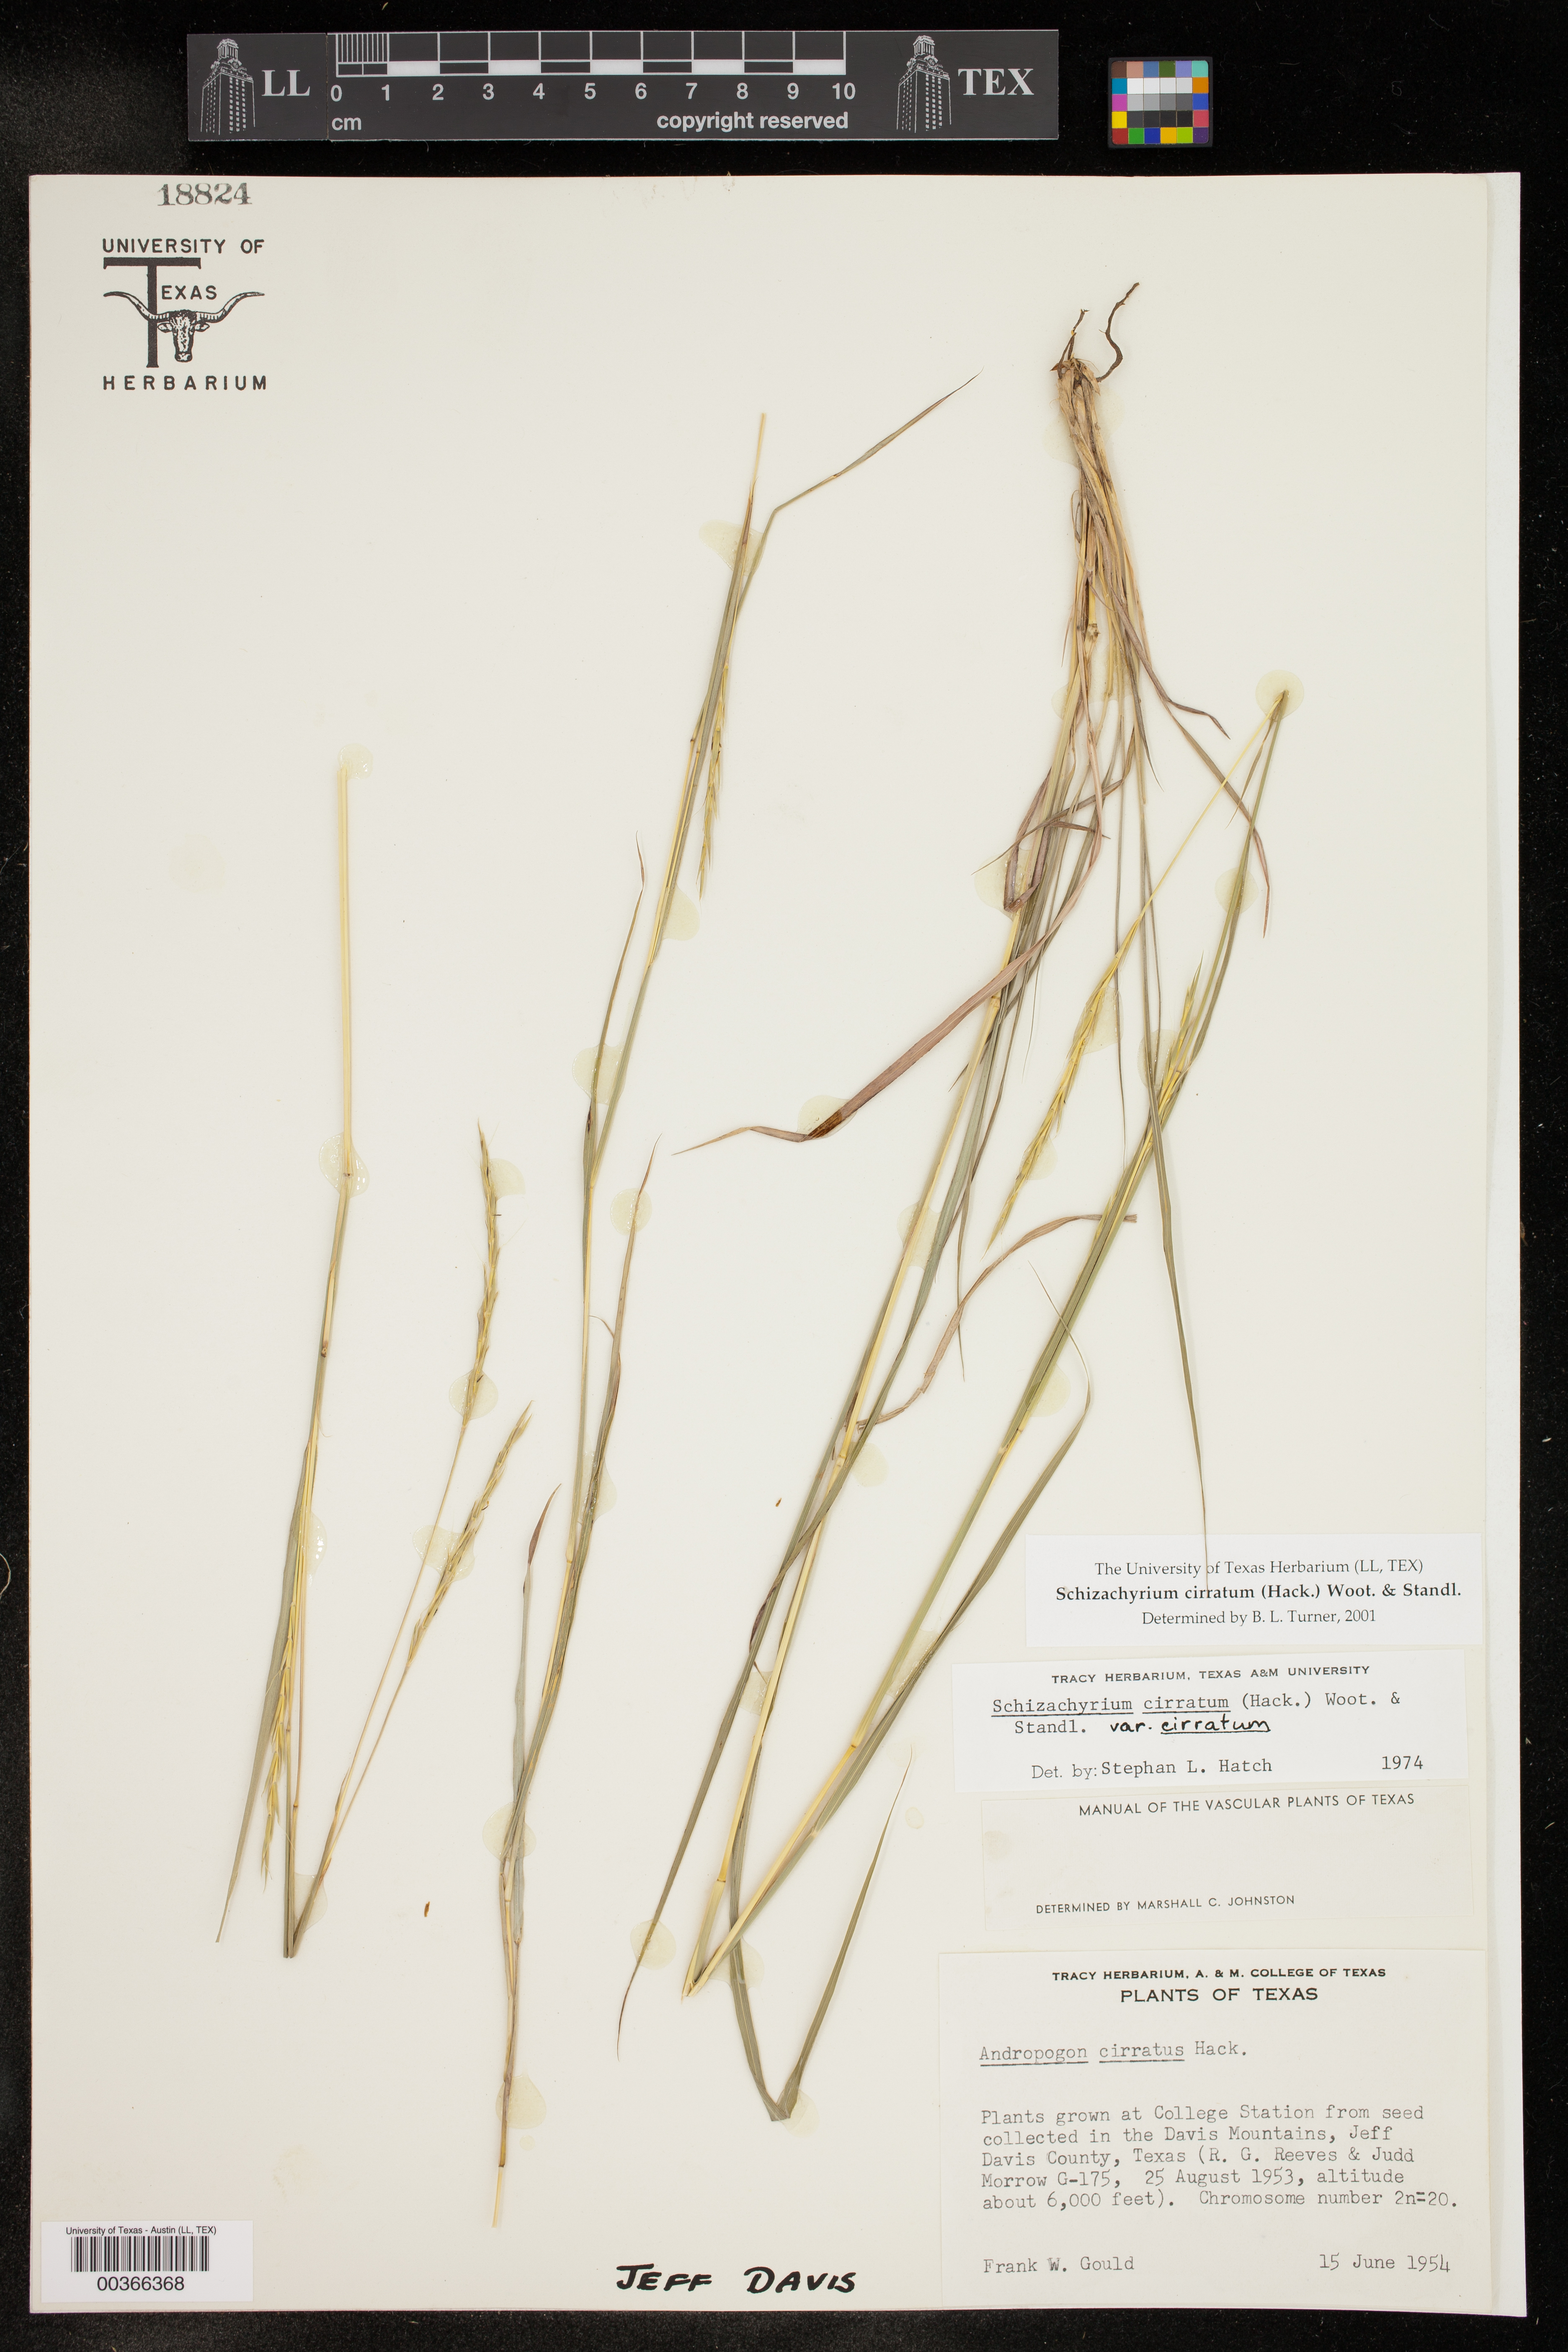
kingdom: Plantae
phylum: Tracheophyta
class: Liliopsida
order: Poales
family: Poaceae
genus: Andropogon
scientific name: Andropogon cirratus
